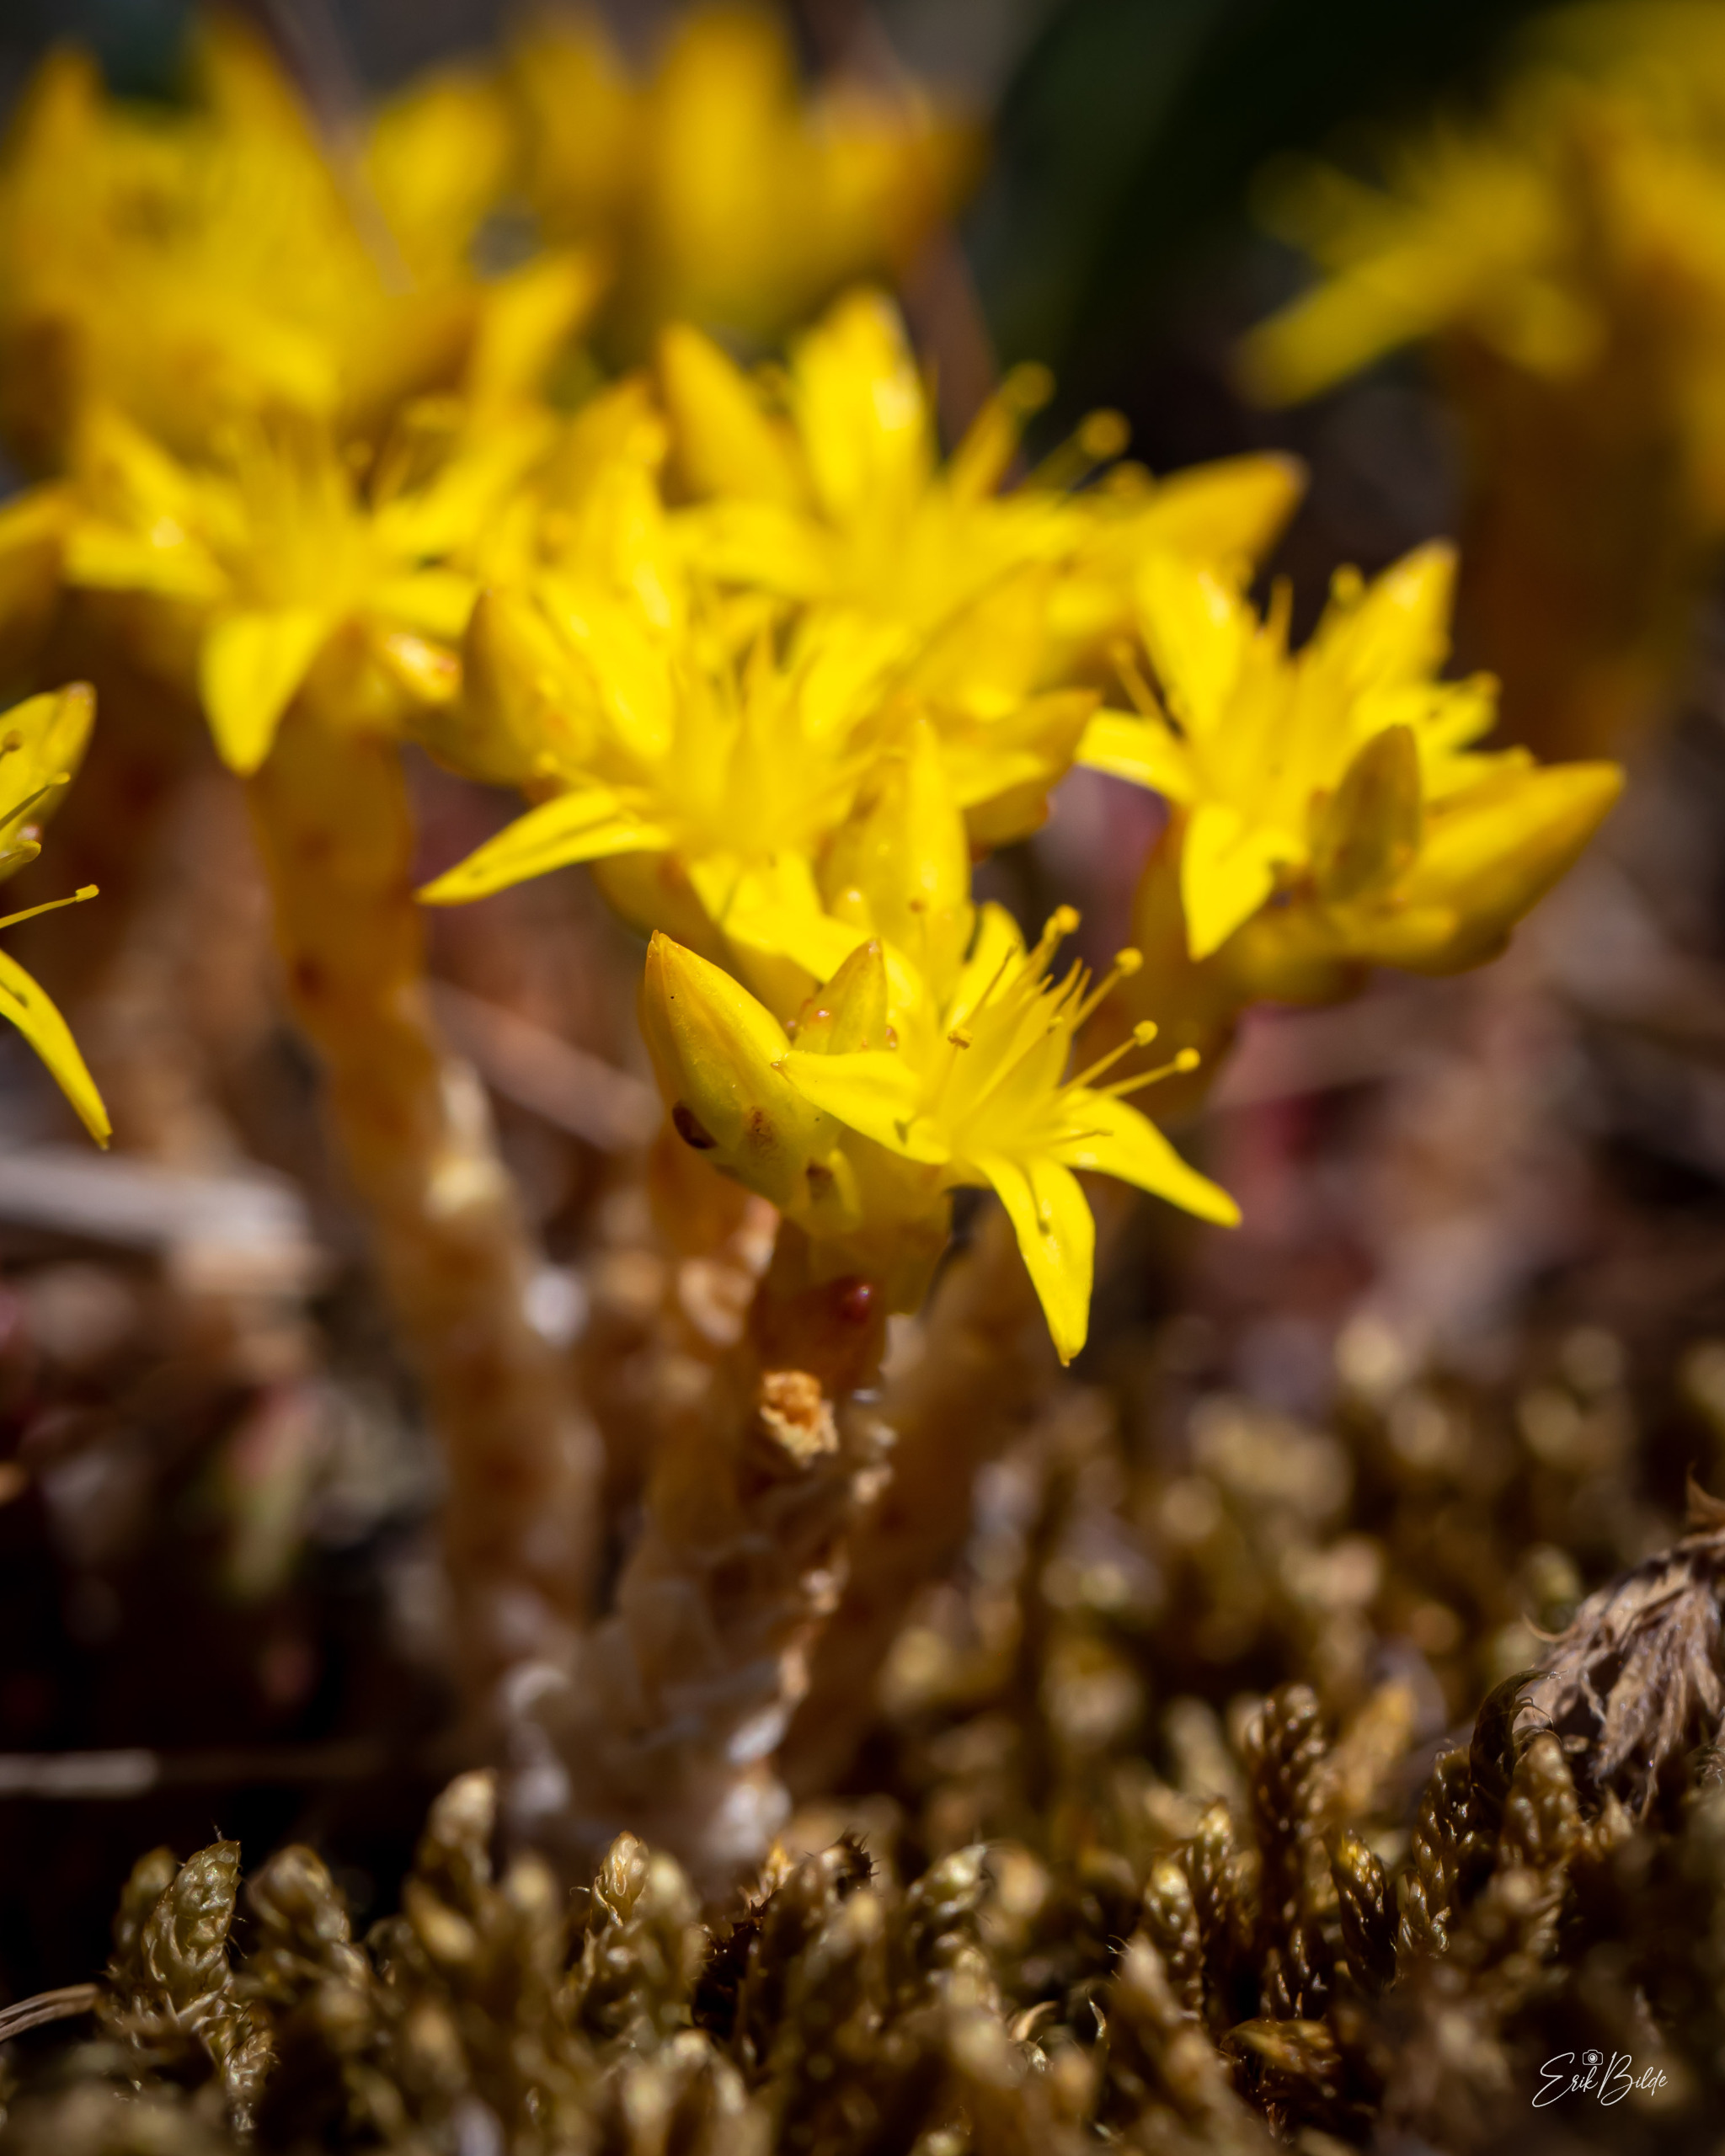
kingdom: Plantae
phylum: Tracheophyta
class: Magnoliopsida
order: Saxifragales
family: Crassulaceae
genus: Sedum
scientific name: Sedum acre
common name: Bidende stenurt
